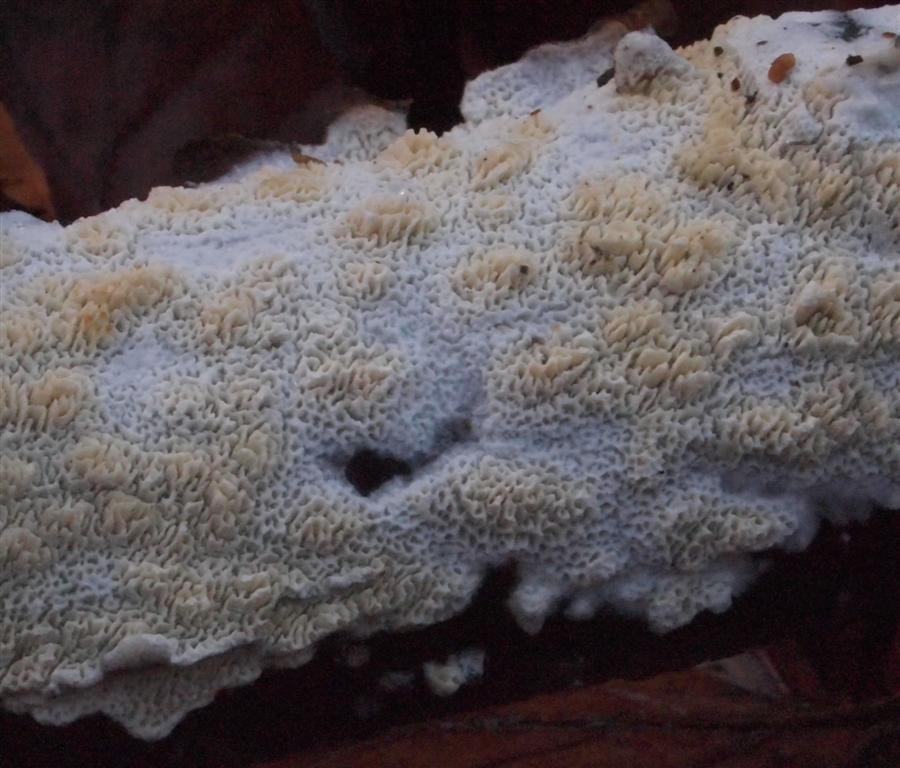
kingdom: Fungi
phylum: Basidiomycota
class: Agaricomycetes
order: Hymenochaetales
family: Schizoporaceae
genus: Schizopora
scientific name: Schizopora paradoxa
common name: hvid tandsvamp
